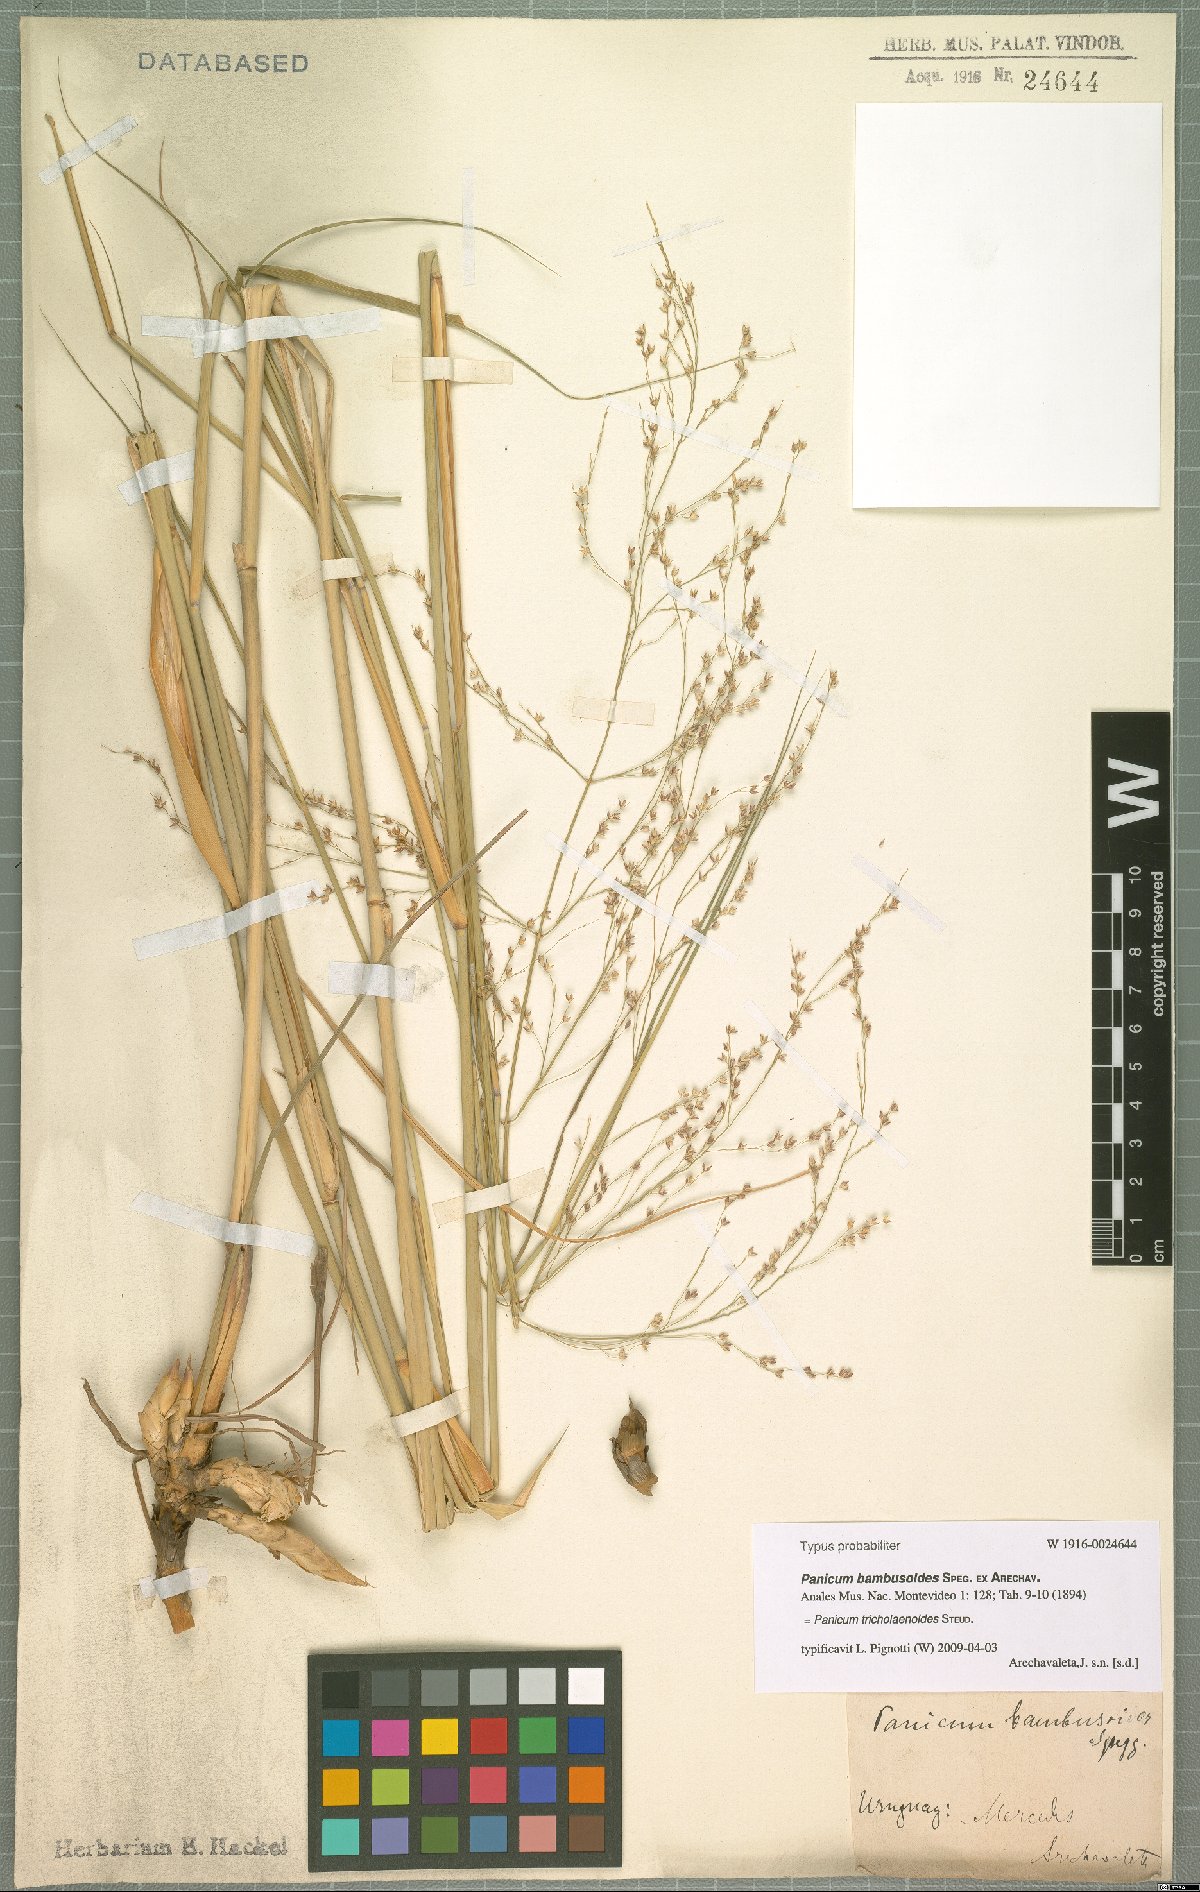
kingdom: Plantae
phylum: Tracheophyta
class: Liliopsida
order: Poales
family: Poaceae
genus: Panicum
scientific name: Panicum tricholaenoides
